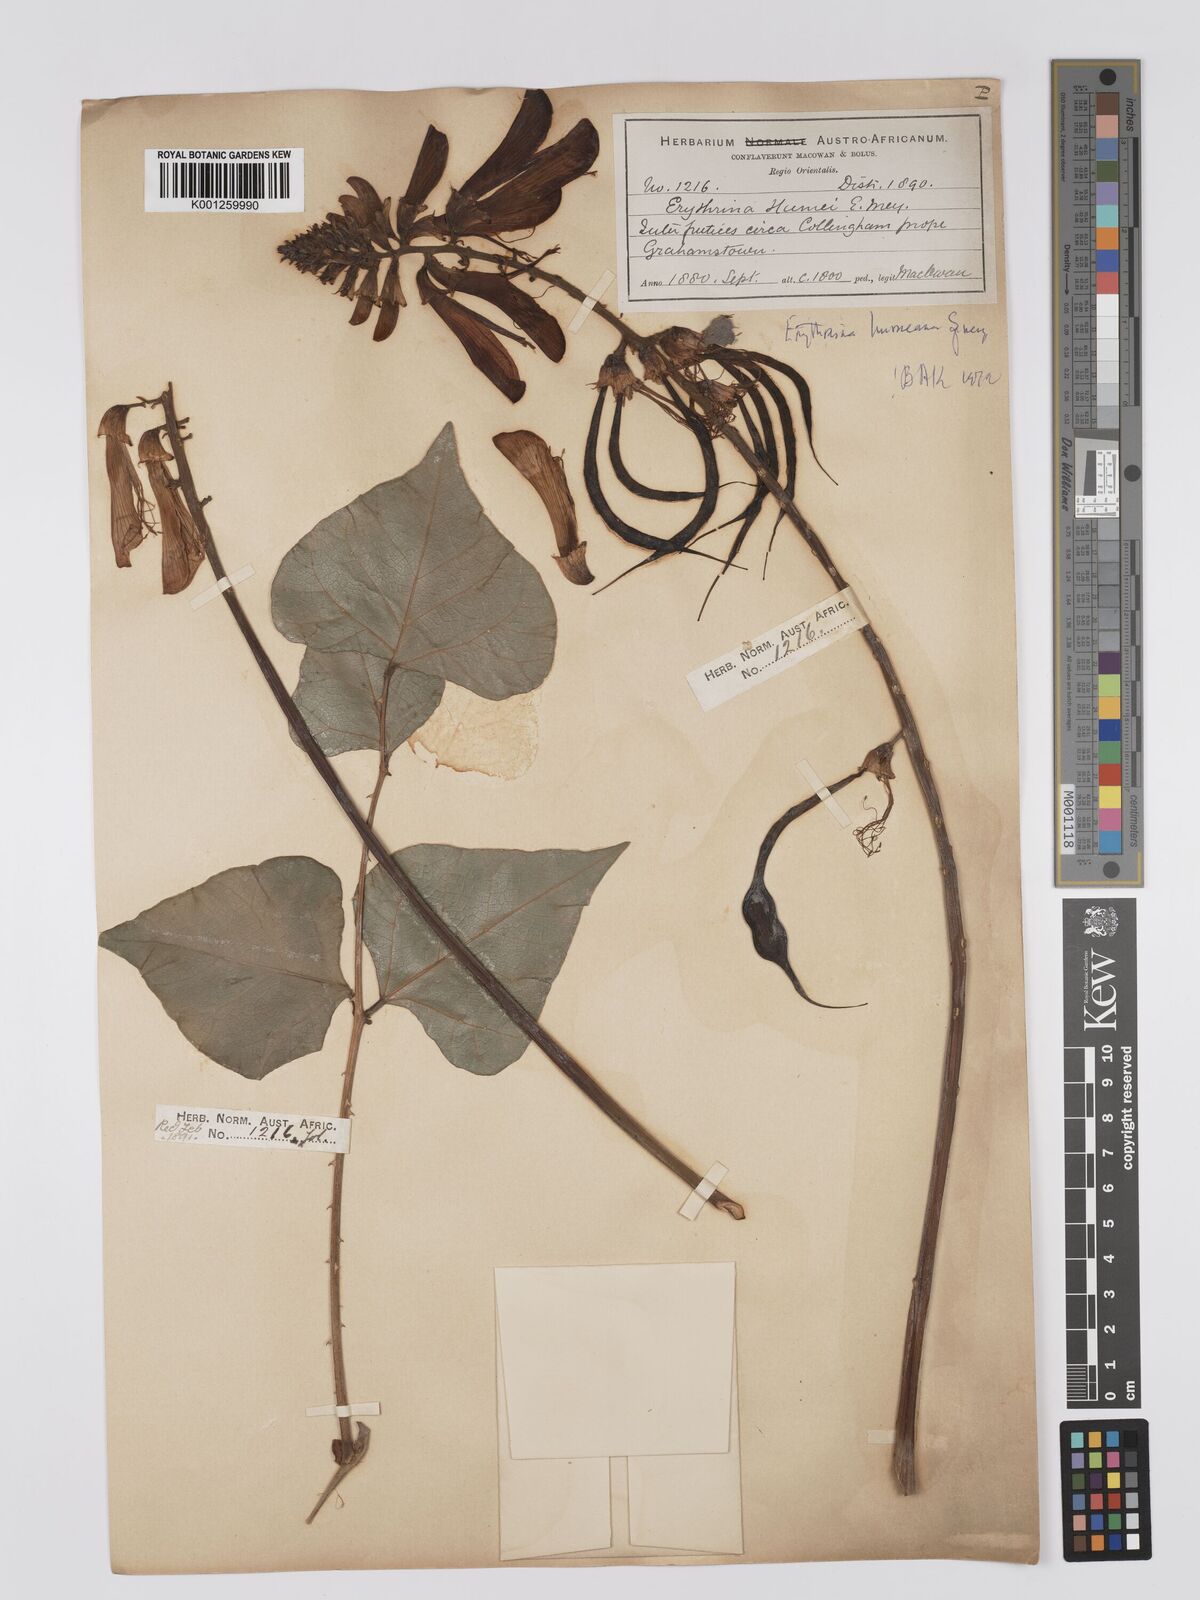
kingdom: Plantae
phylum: Tracheophyta
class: Magnoliopsida
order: Fabales
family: Fabaceae
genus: Erythrina
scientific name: Erythrina humeana
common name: Dwarf coral tree
